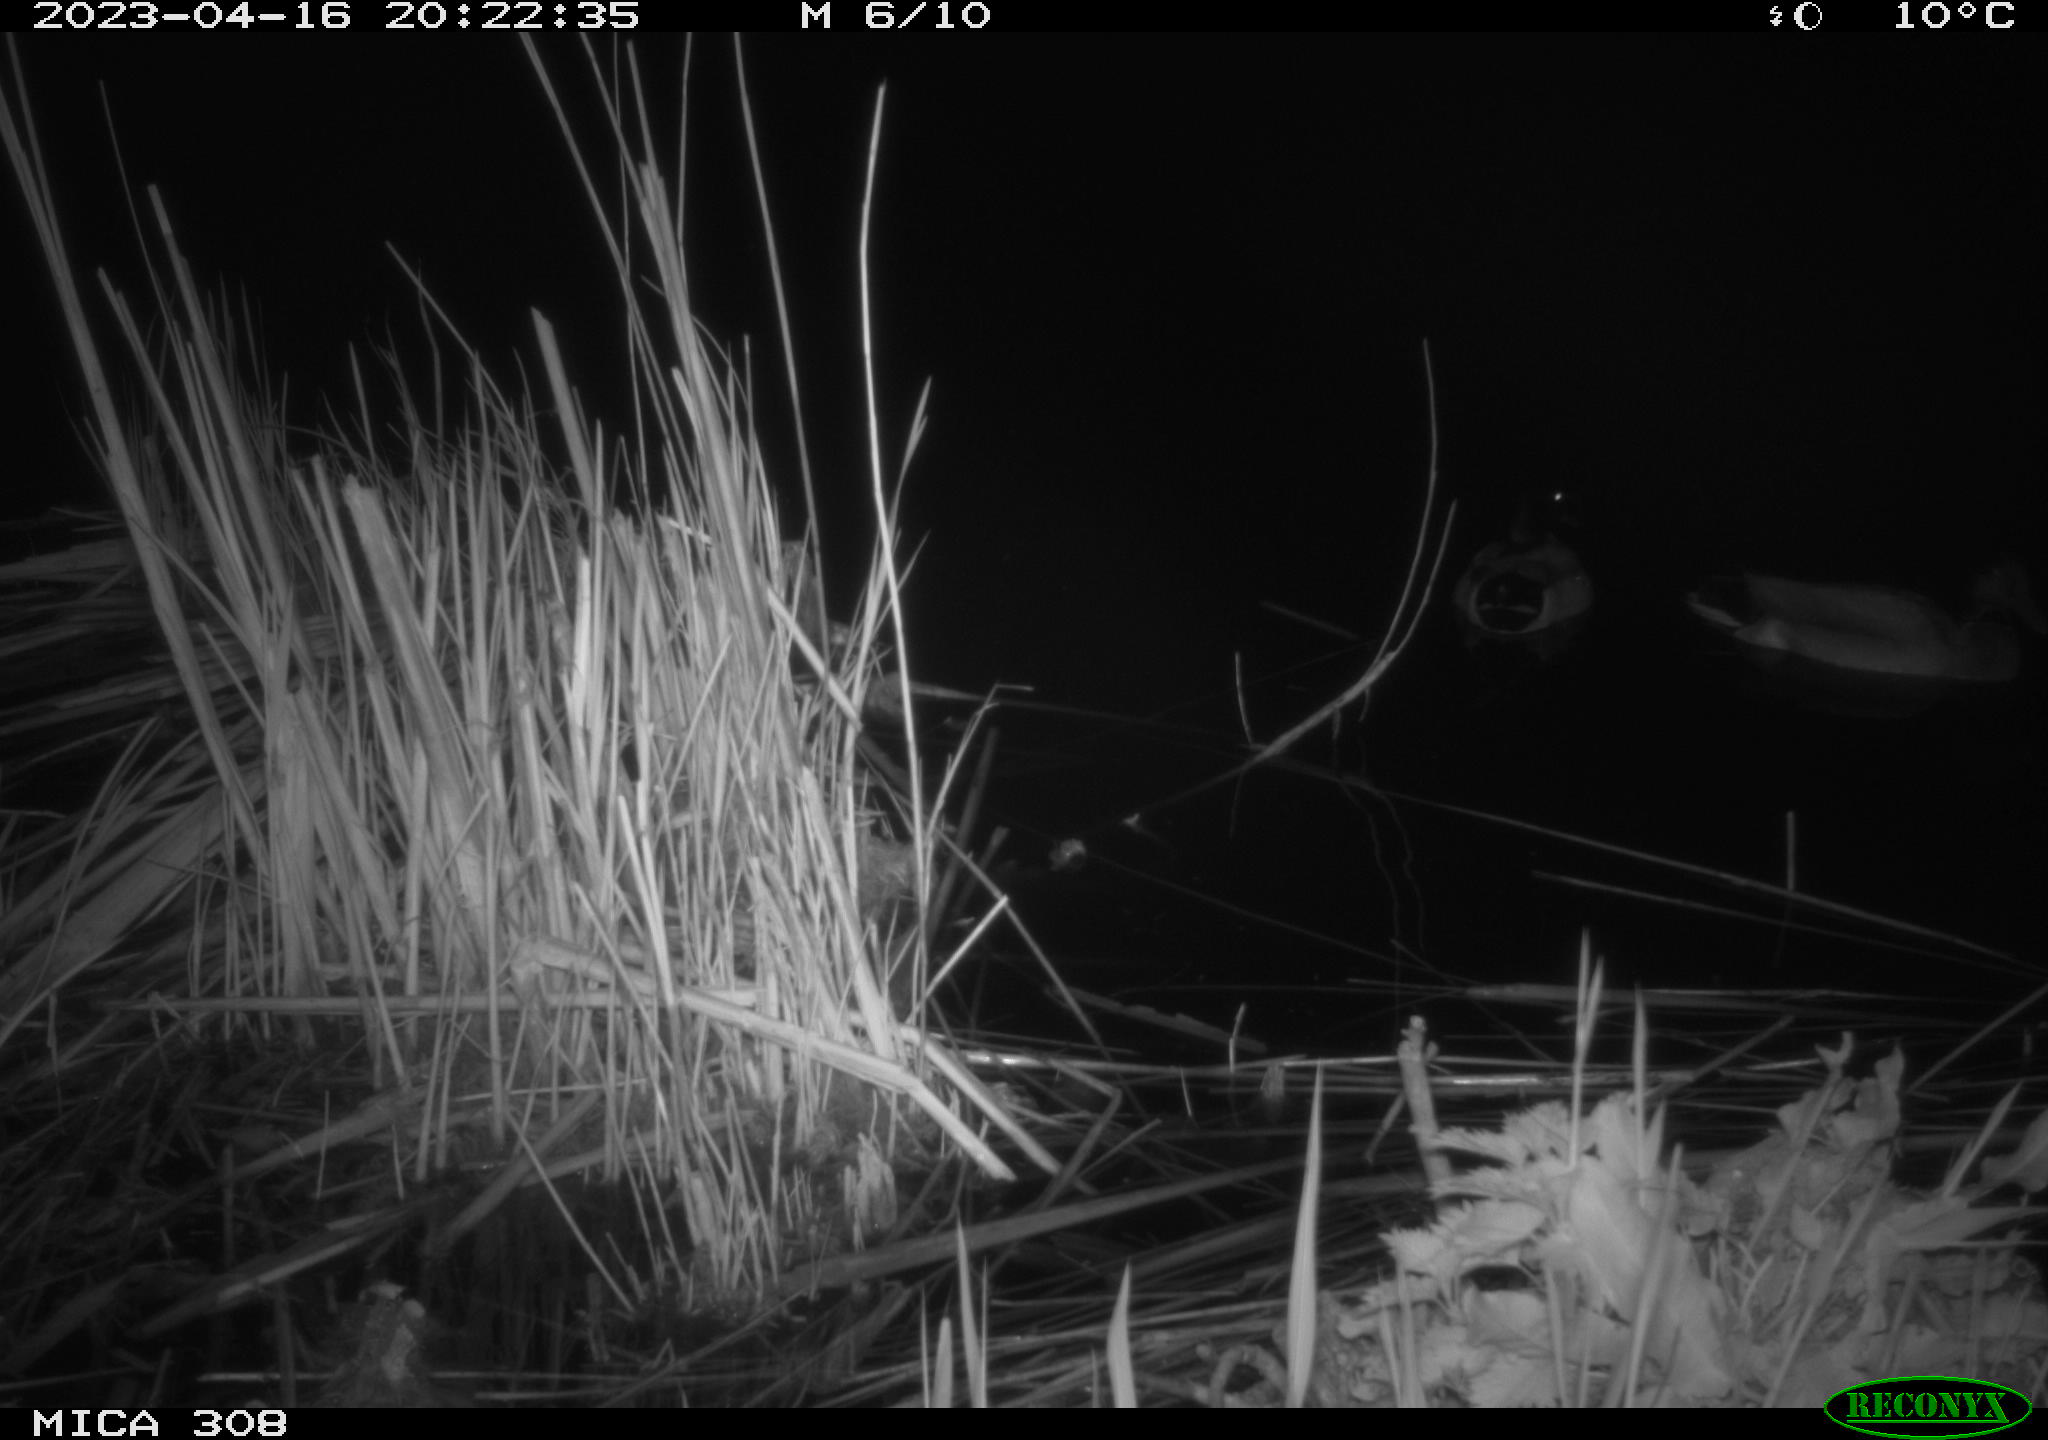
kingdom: Animalia
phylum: Chordata
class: Aves
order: Anseriformes
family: Anatidae
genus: Anas
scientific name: Anas
